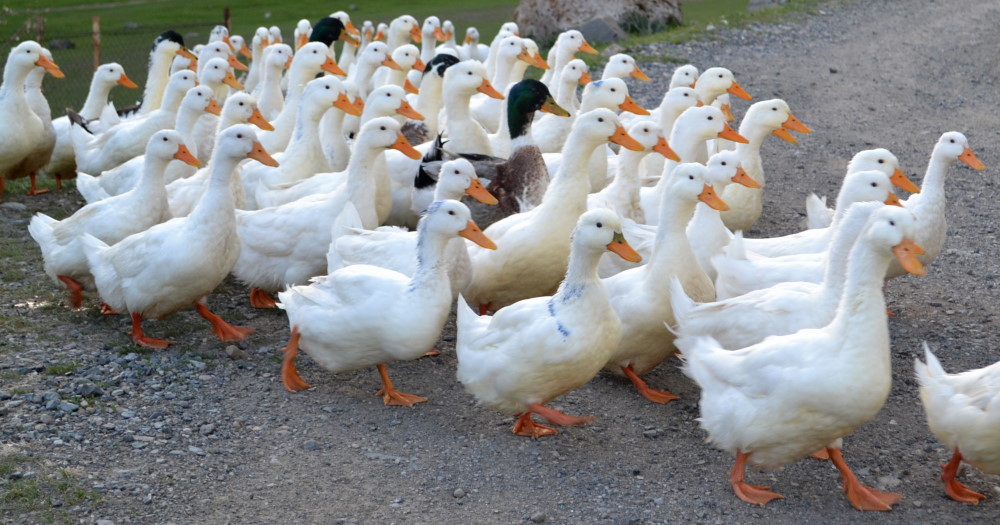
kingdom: Animalia
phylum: Chordata
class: Aves
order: Anseriformes
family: Anatidae
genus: Anser
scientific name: Anser anser
